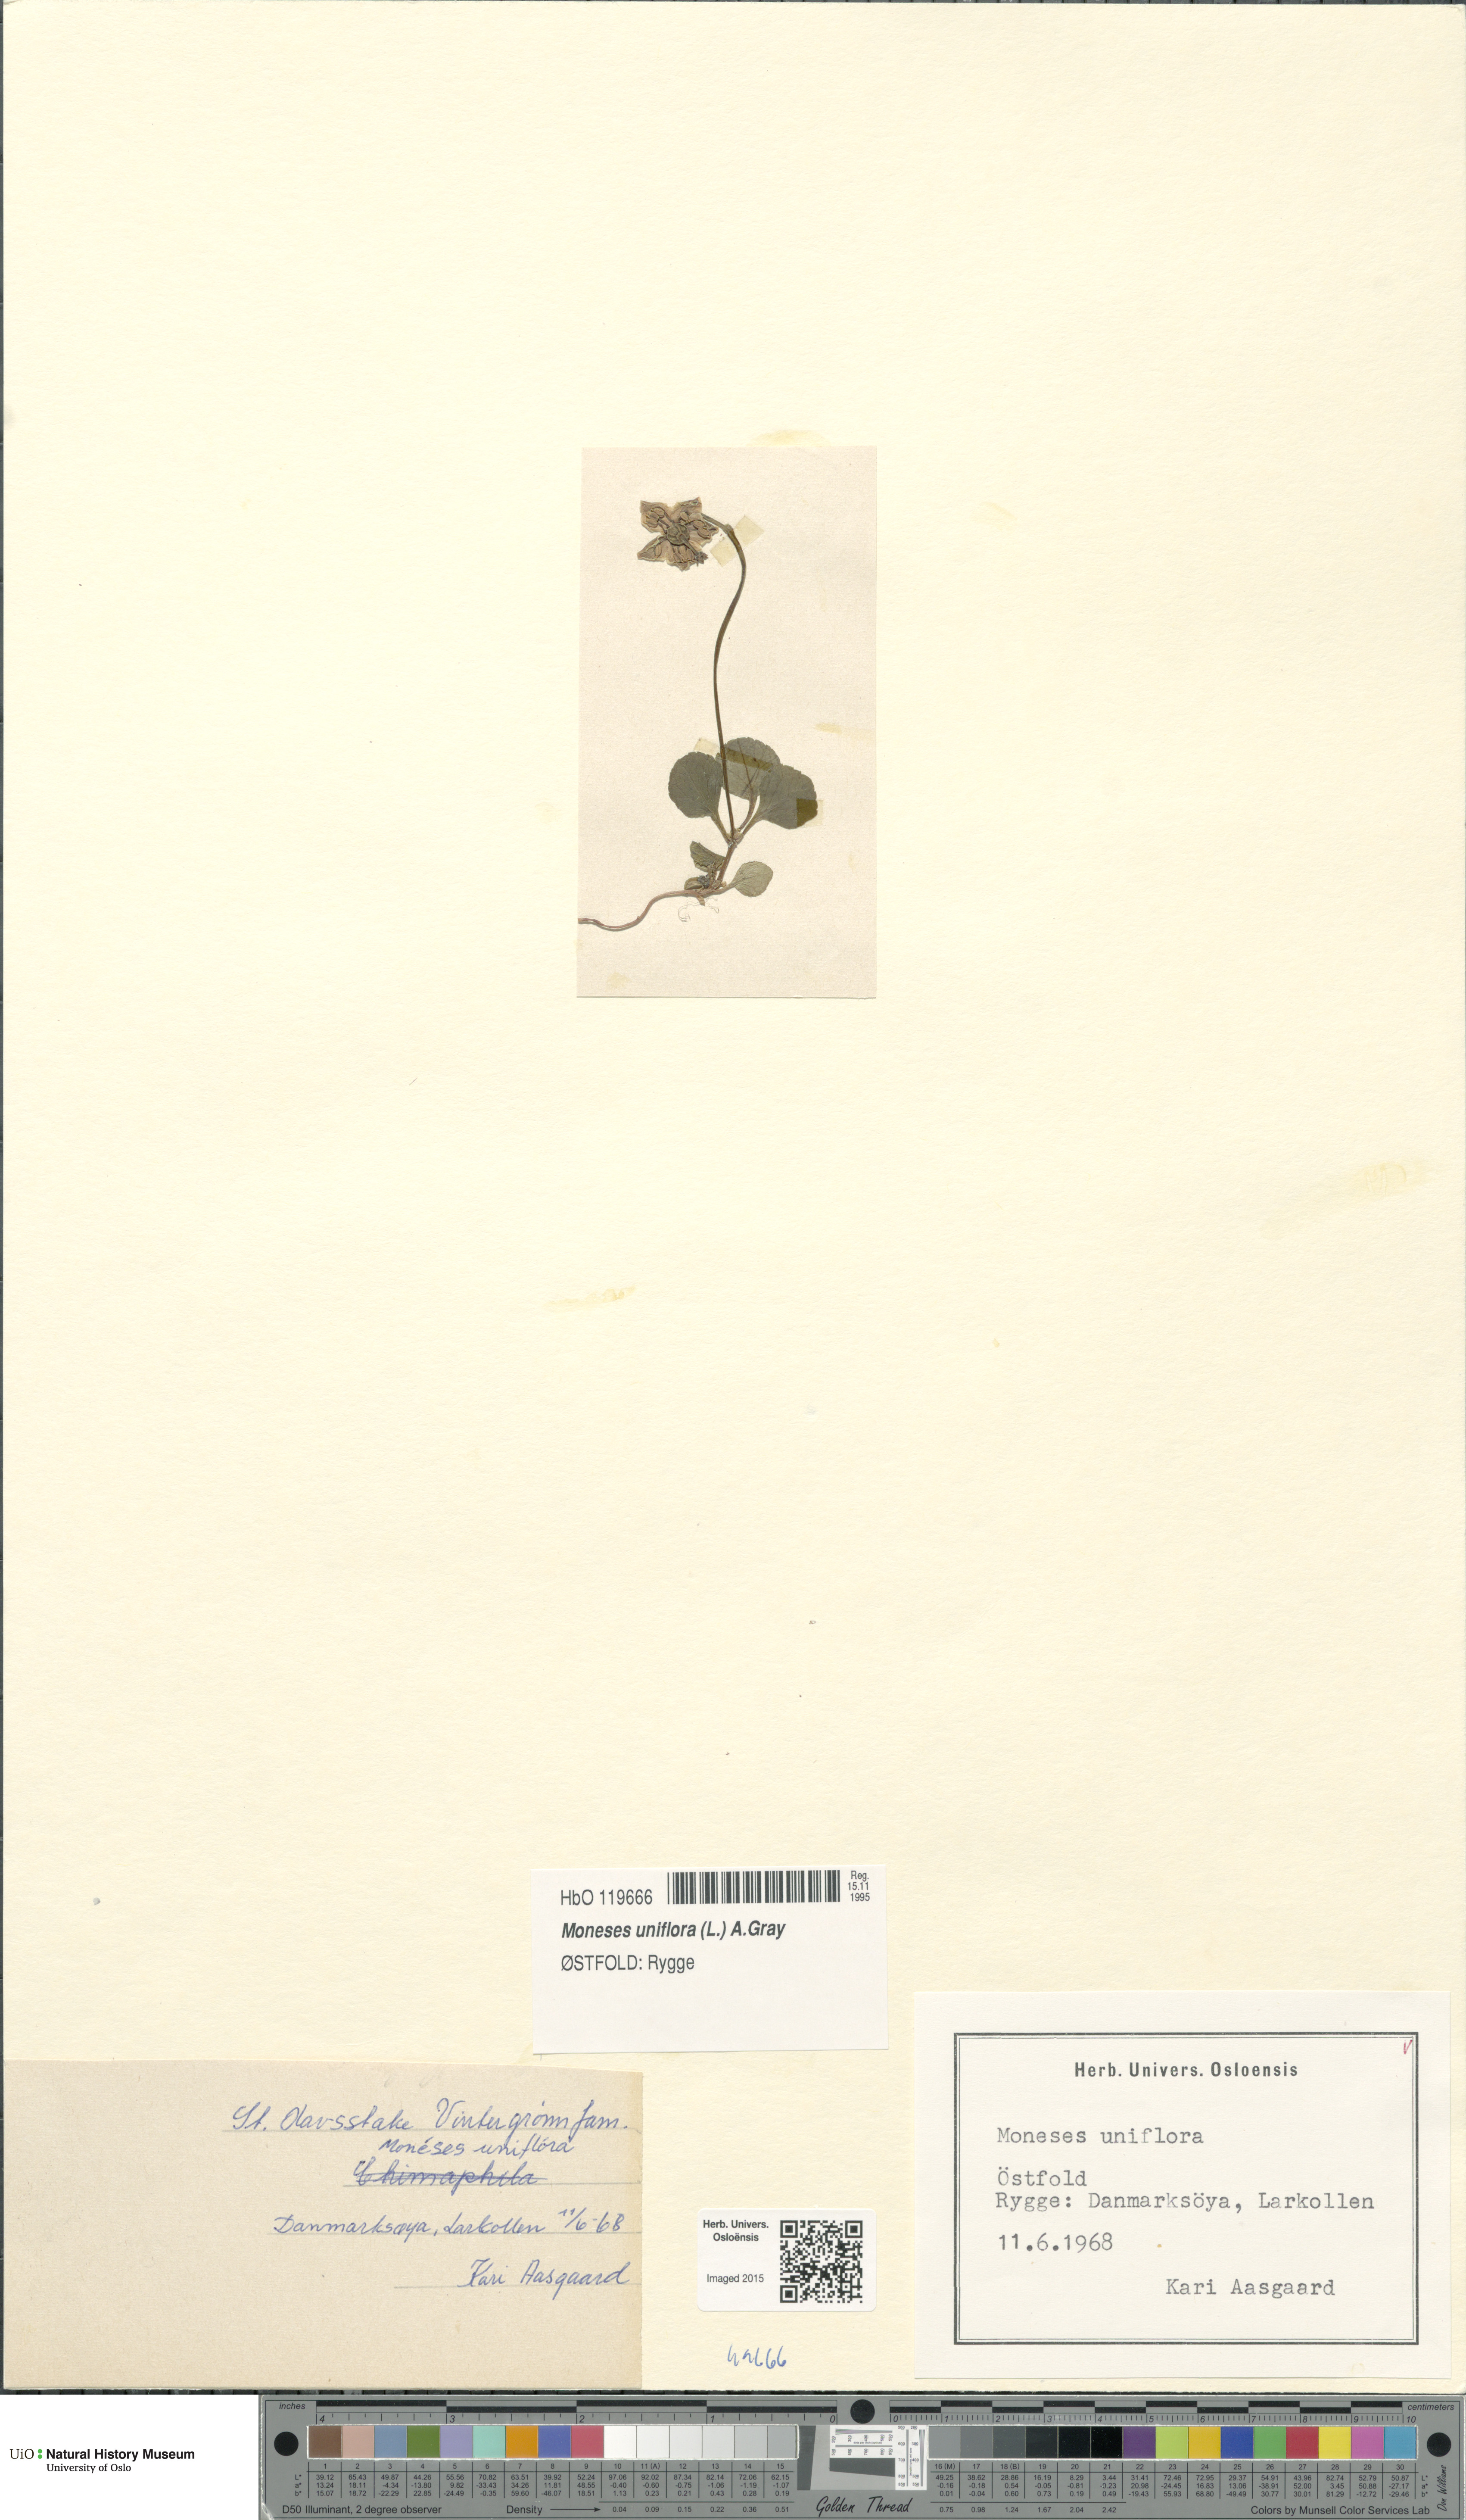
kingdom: Plantae
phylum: Tracheophyta
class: Magnoliopsida
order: Ericales
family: Ericaceae
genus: Moneses
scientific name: Moneses uniflora
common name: One-flowered wintergreen
